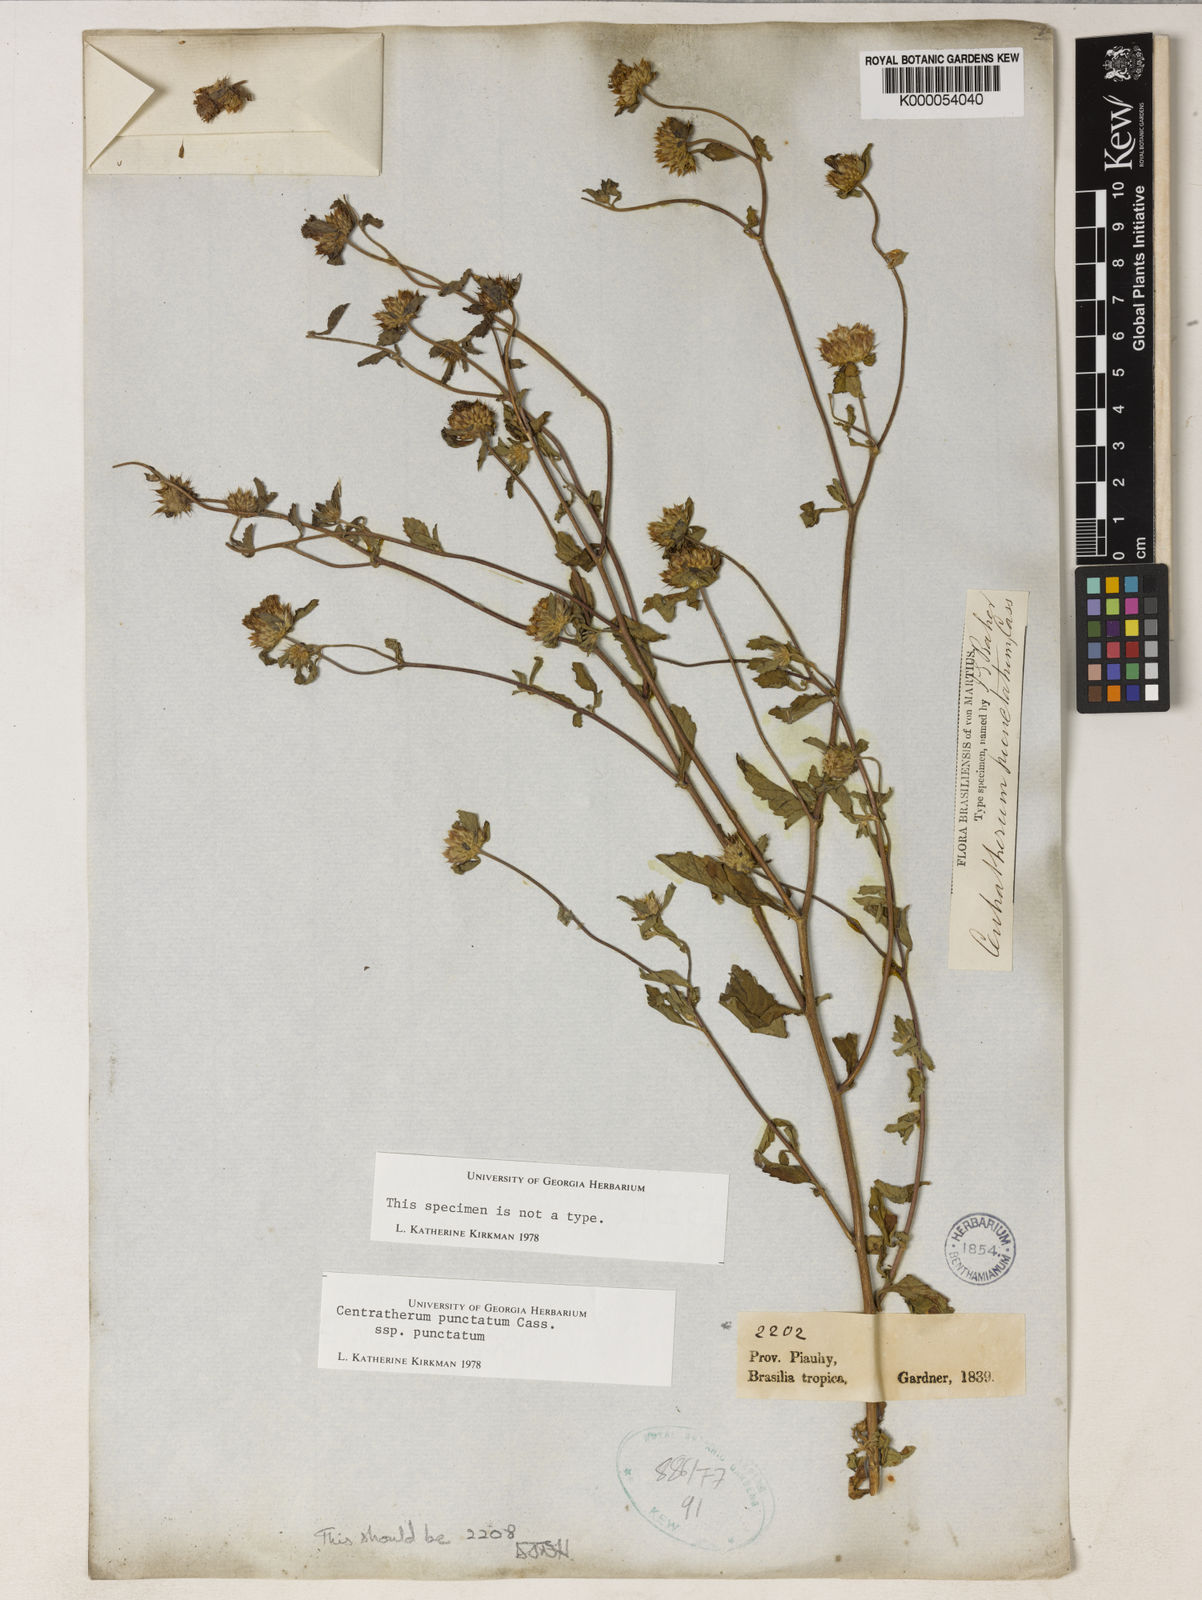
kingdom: Plantae
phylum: Tracheophyta
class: Magnoliopsida
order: Asterales
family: Asteraceae
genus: Centratherum
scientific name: Centratherum punctatum
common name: Larkdaisy
